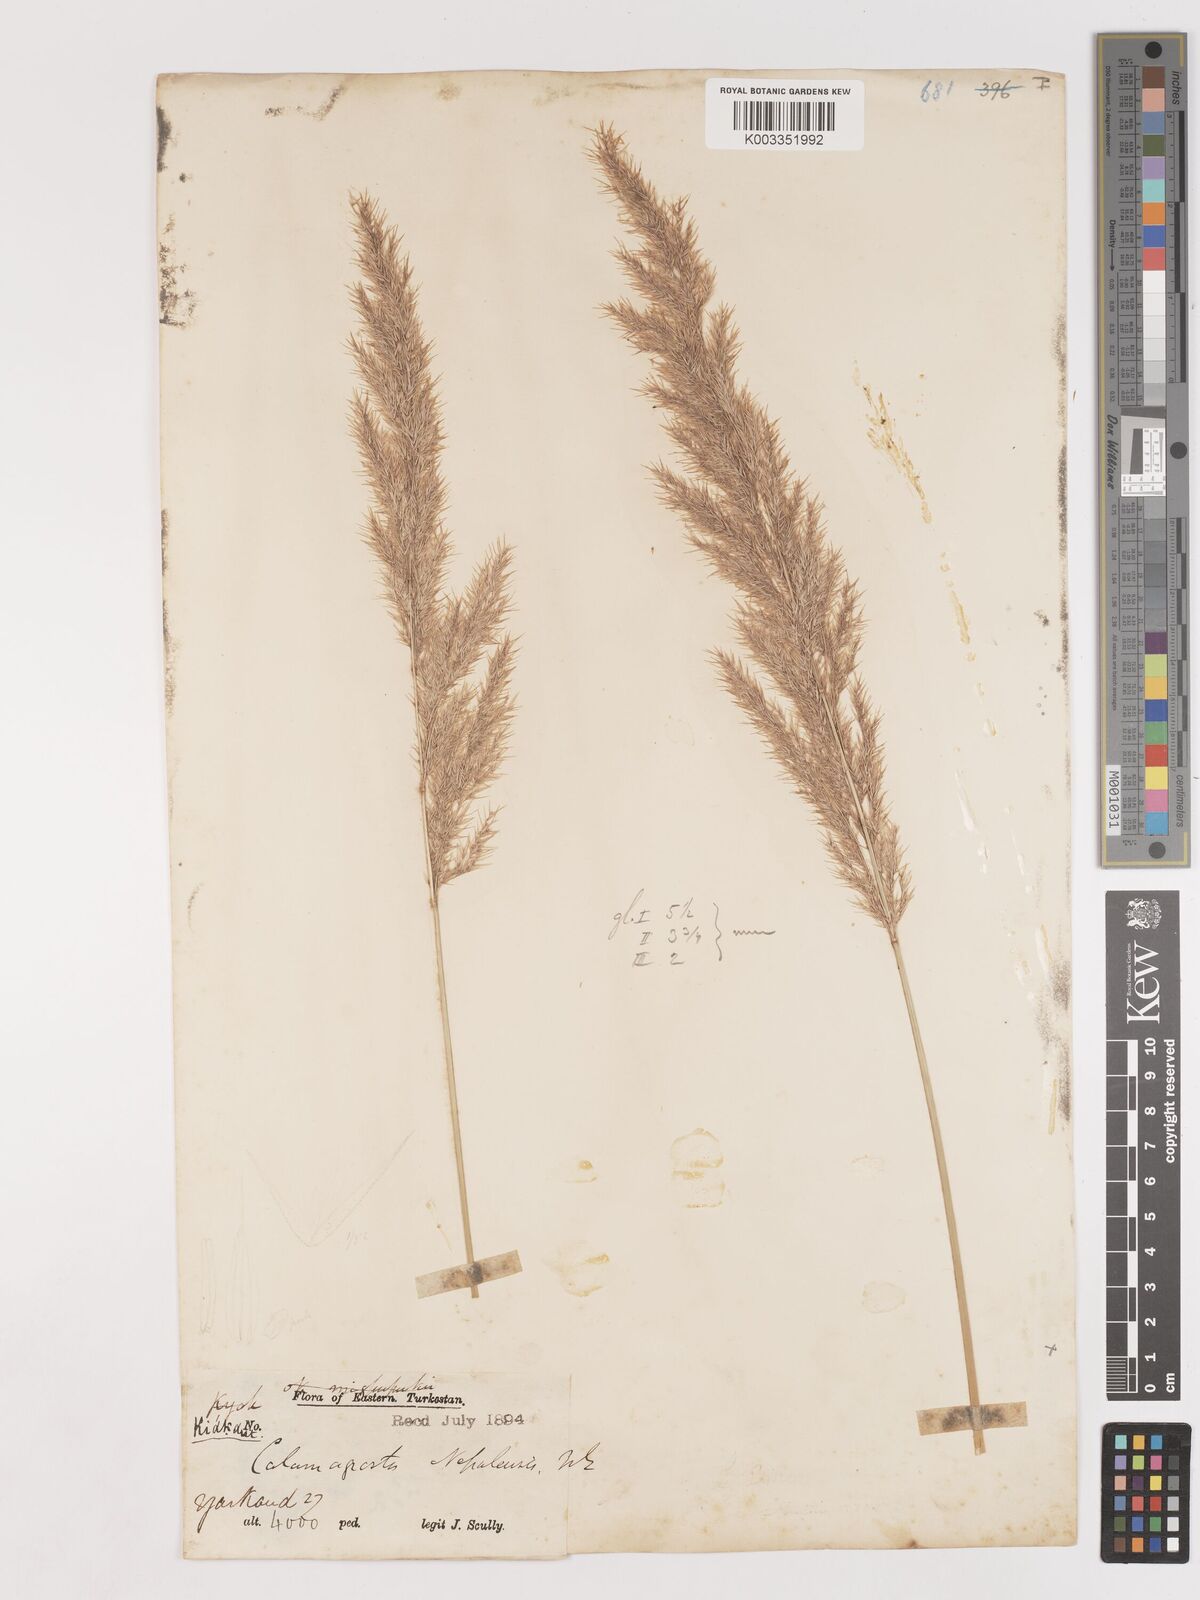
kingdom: Plantae
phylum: Tracheophyta
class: Liliopsida
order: Poales
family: Poaceae
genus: Calamagrostis
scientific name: Calamagrostis pseudophragmites
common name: Coastal small-reed
